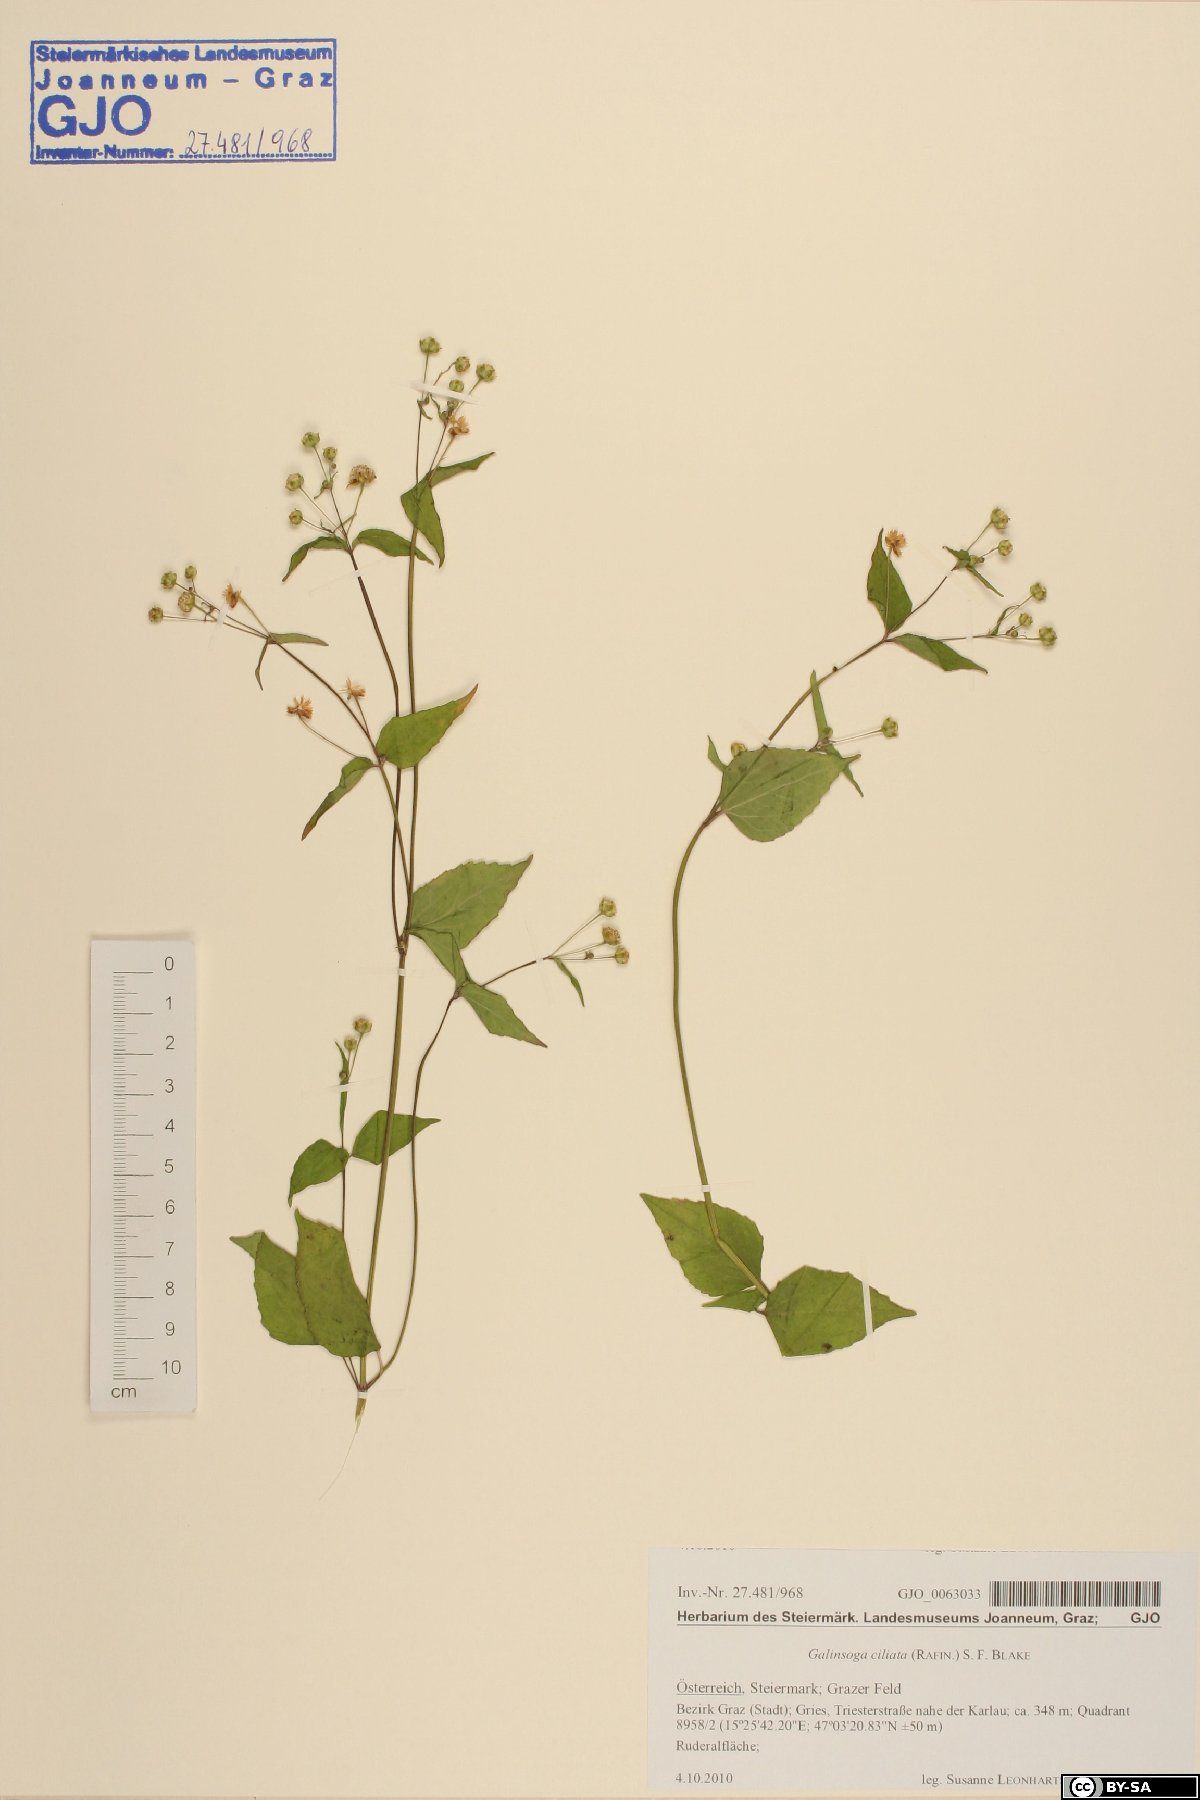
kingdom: Plantae
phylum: Tracheophyta
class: Magnoliopsida
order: Asterales
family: Asteraceae
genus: Galinsoga
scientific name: Galinsoga quadriradiata
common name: Shaggy soldier
